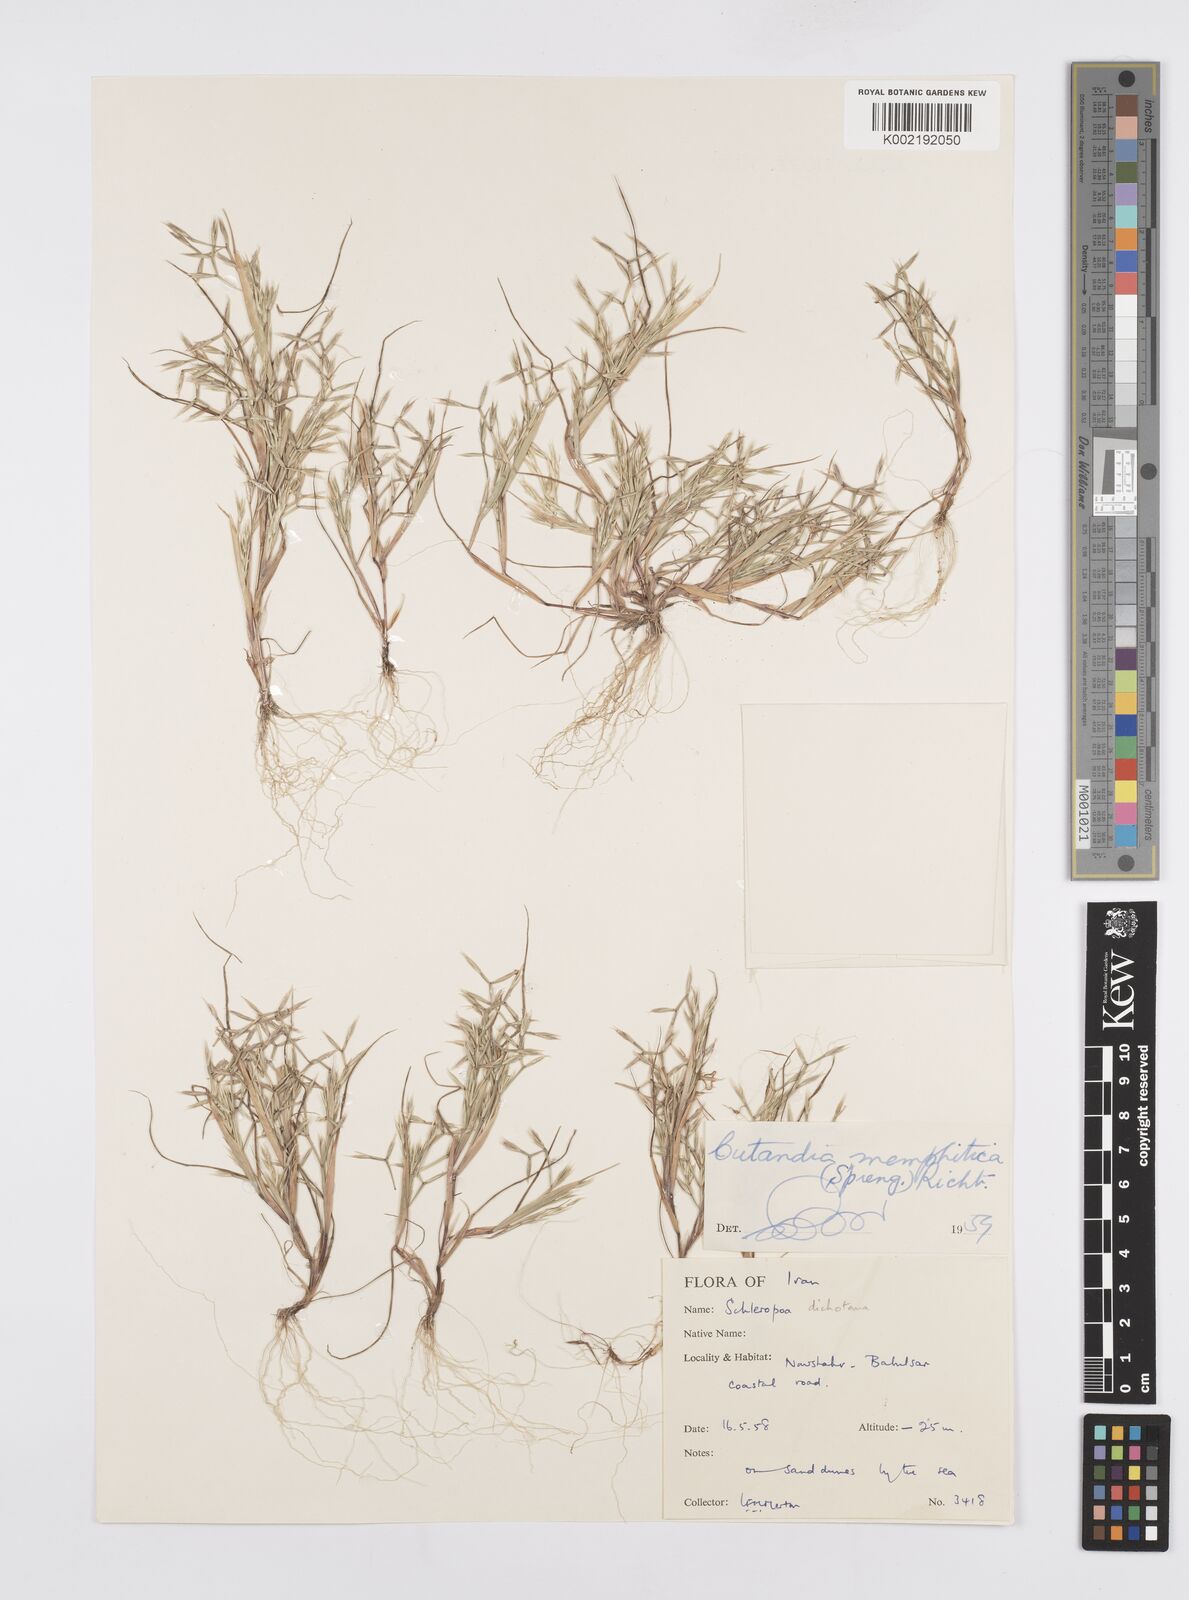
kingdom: Plantae
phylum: Tracheophyta
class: Liliopsida
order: Poales
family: Poaceae
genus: Cutandia
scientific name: Cutandia memphitica
